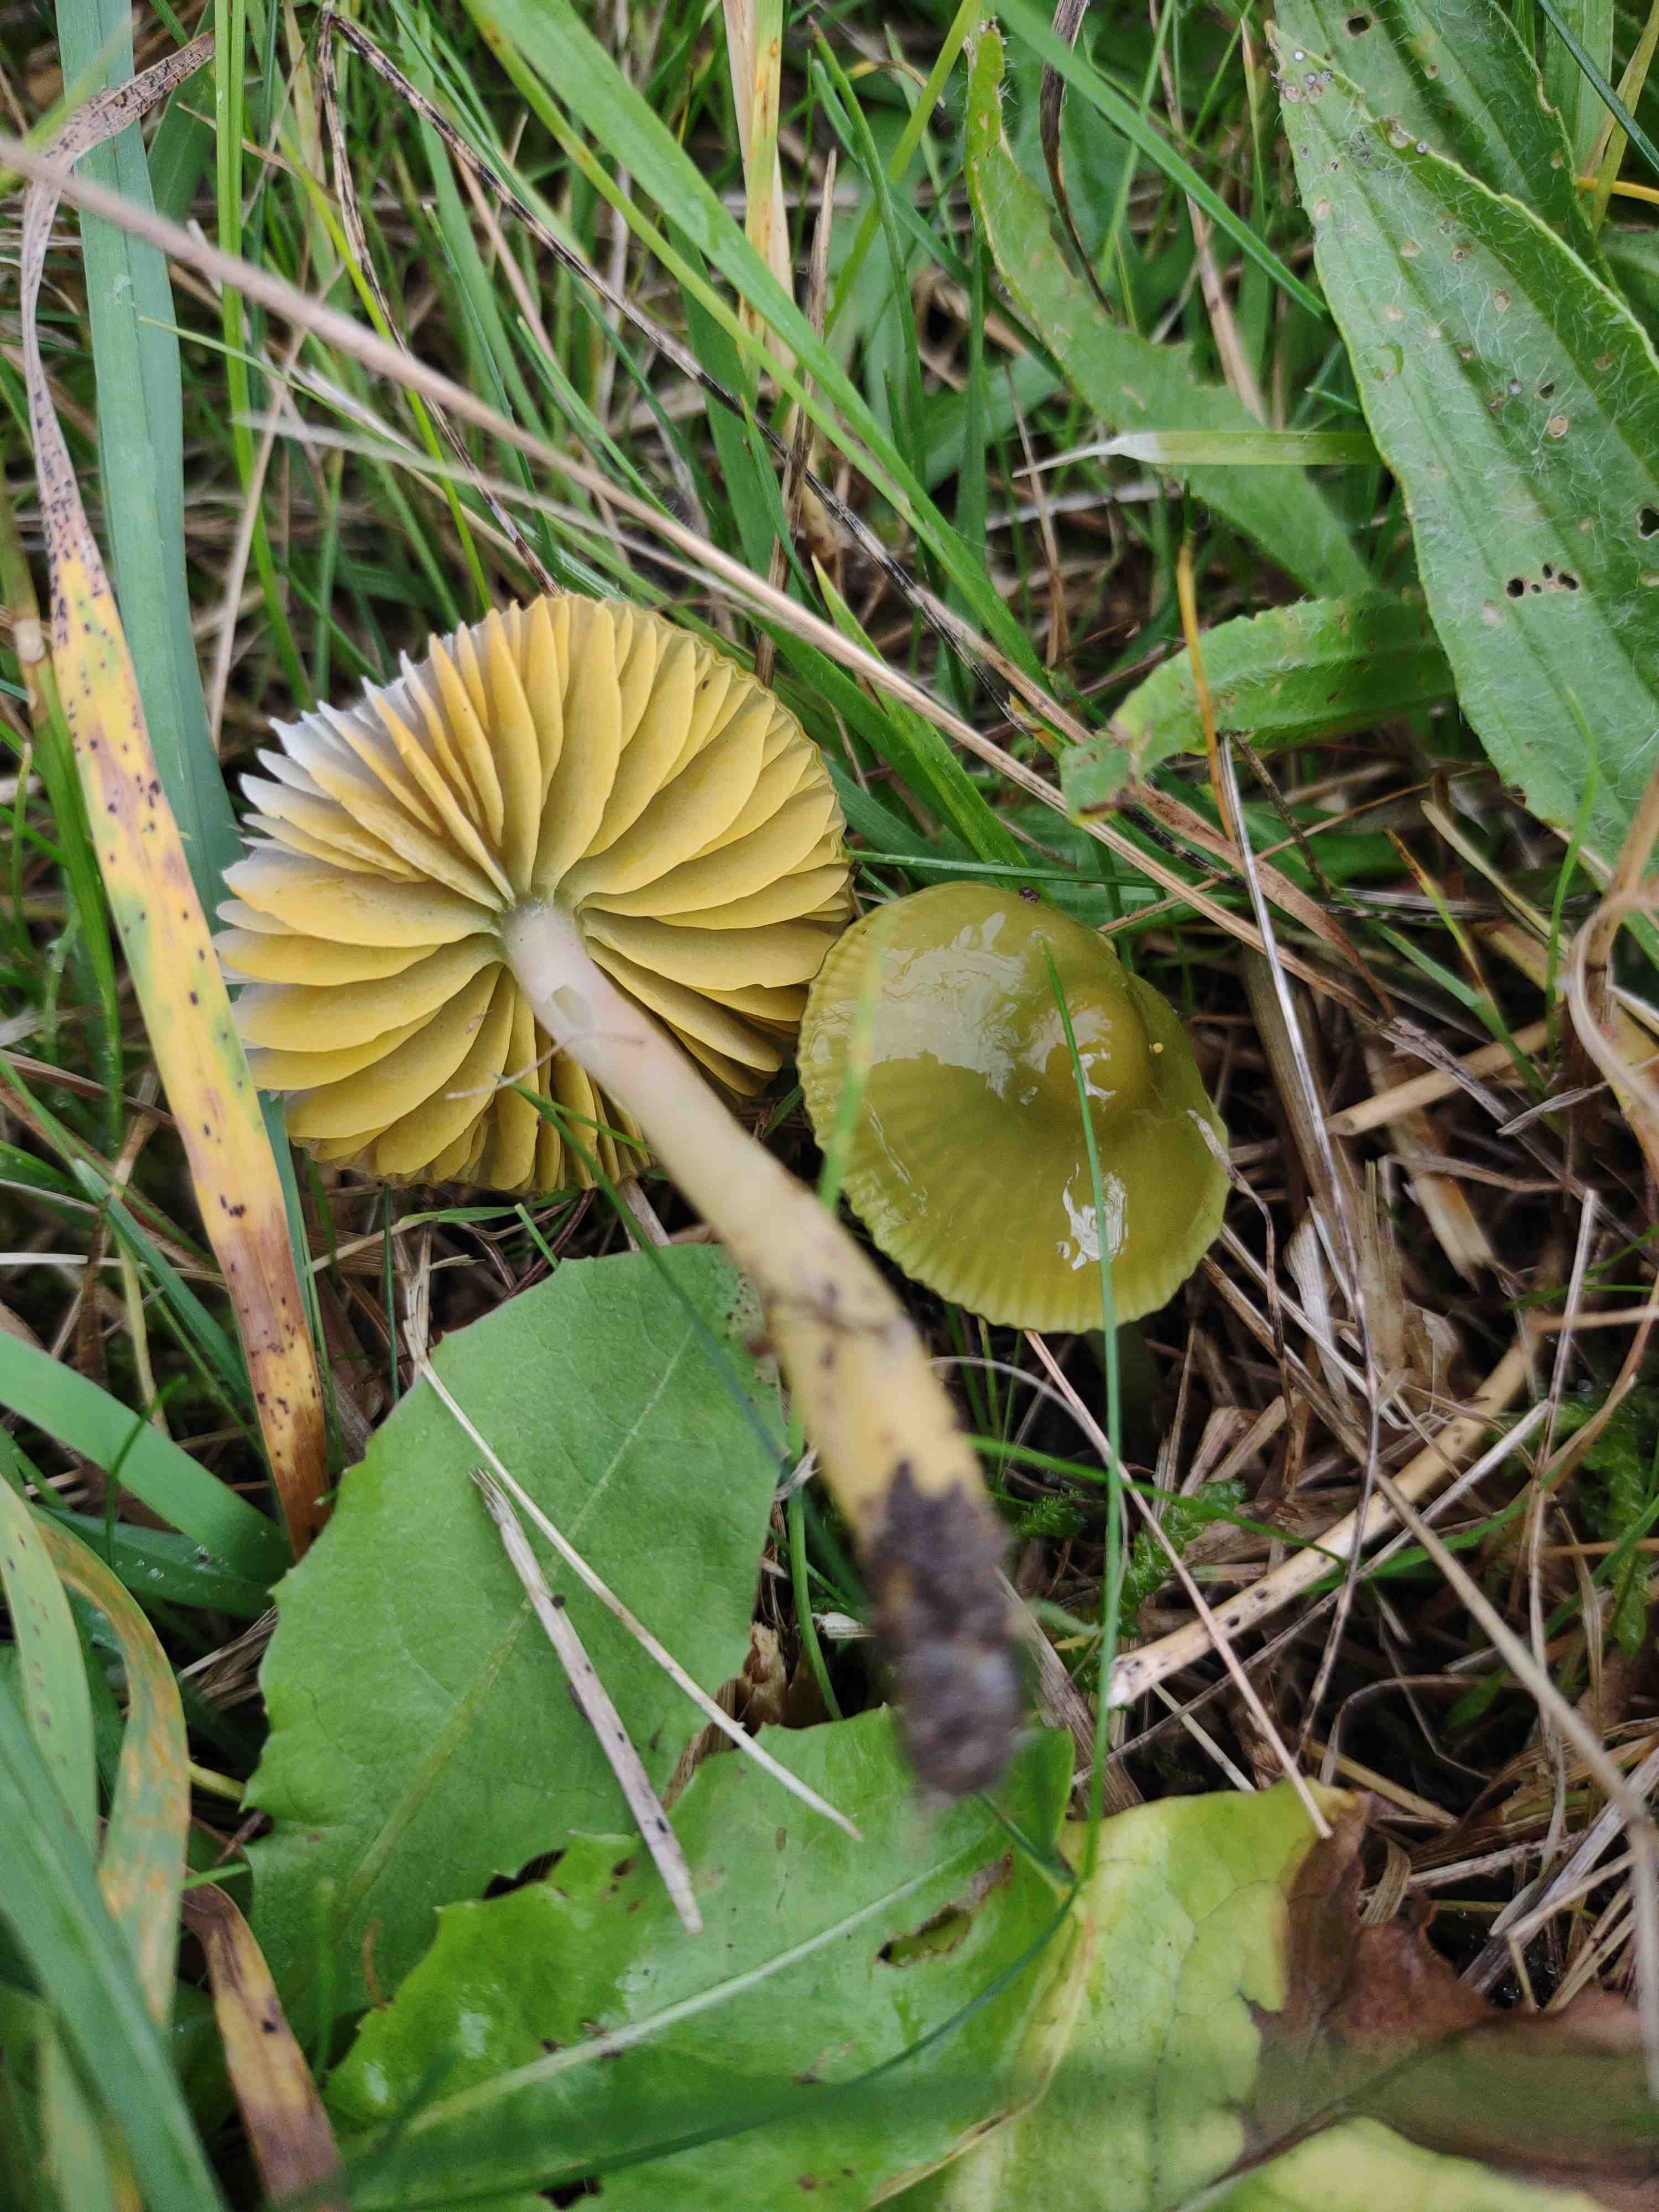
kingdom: Fungi
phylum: Basidiomycota
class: Agaricomycetes
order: Agaricales
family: Hygrophoraceae
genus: Gliophorus
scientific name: Gliophorus psittacinus
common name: papegøje-vokshat
